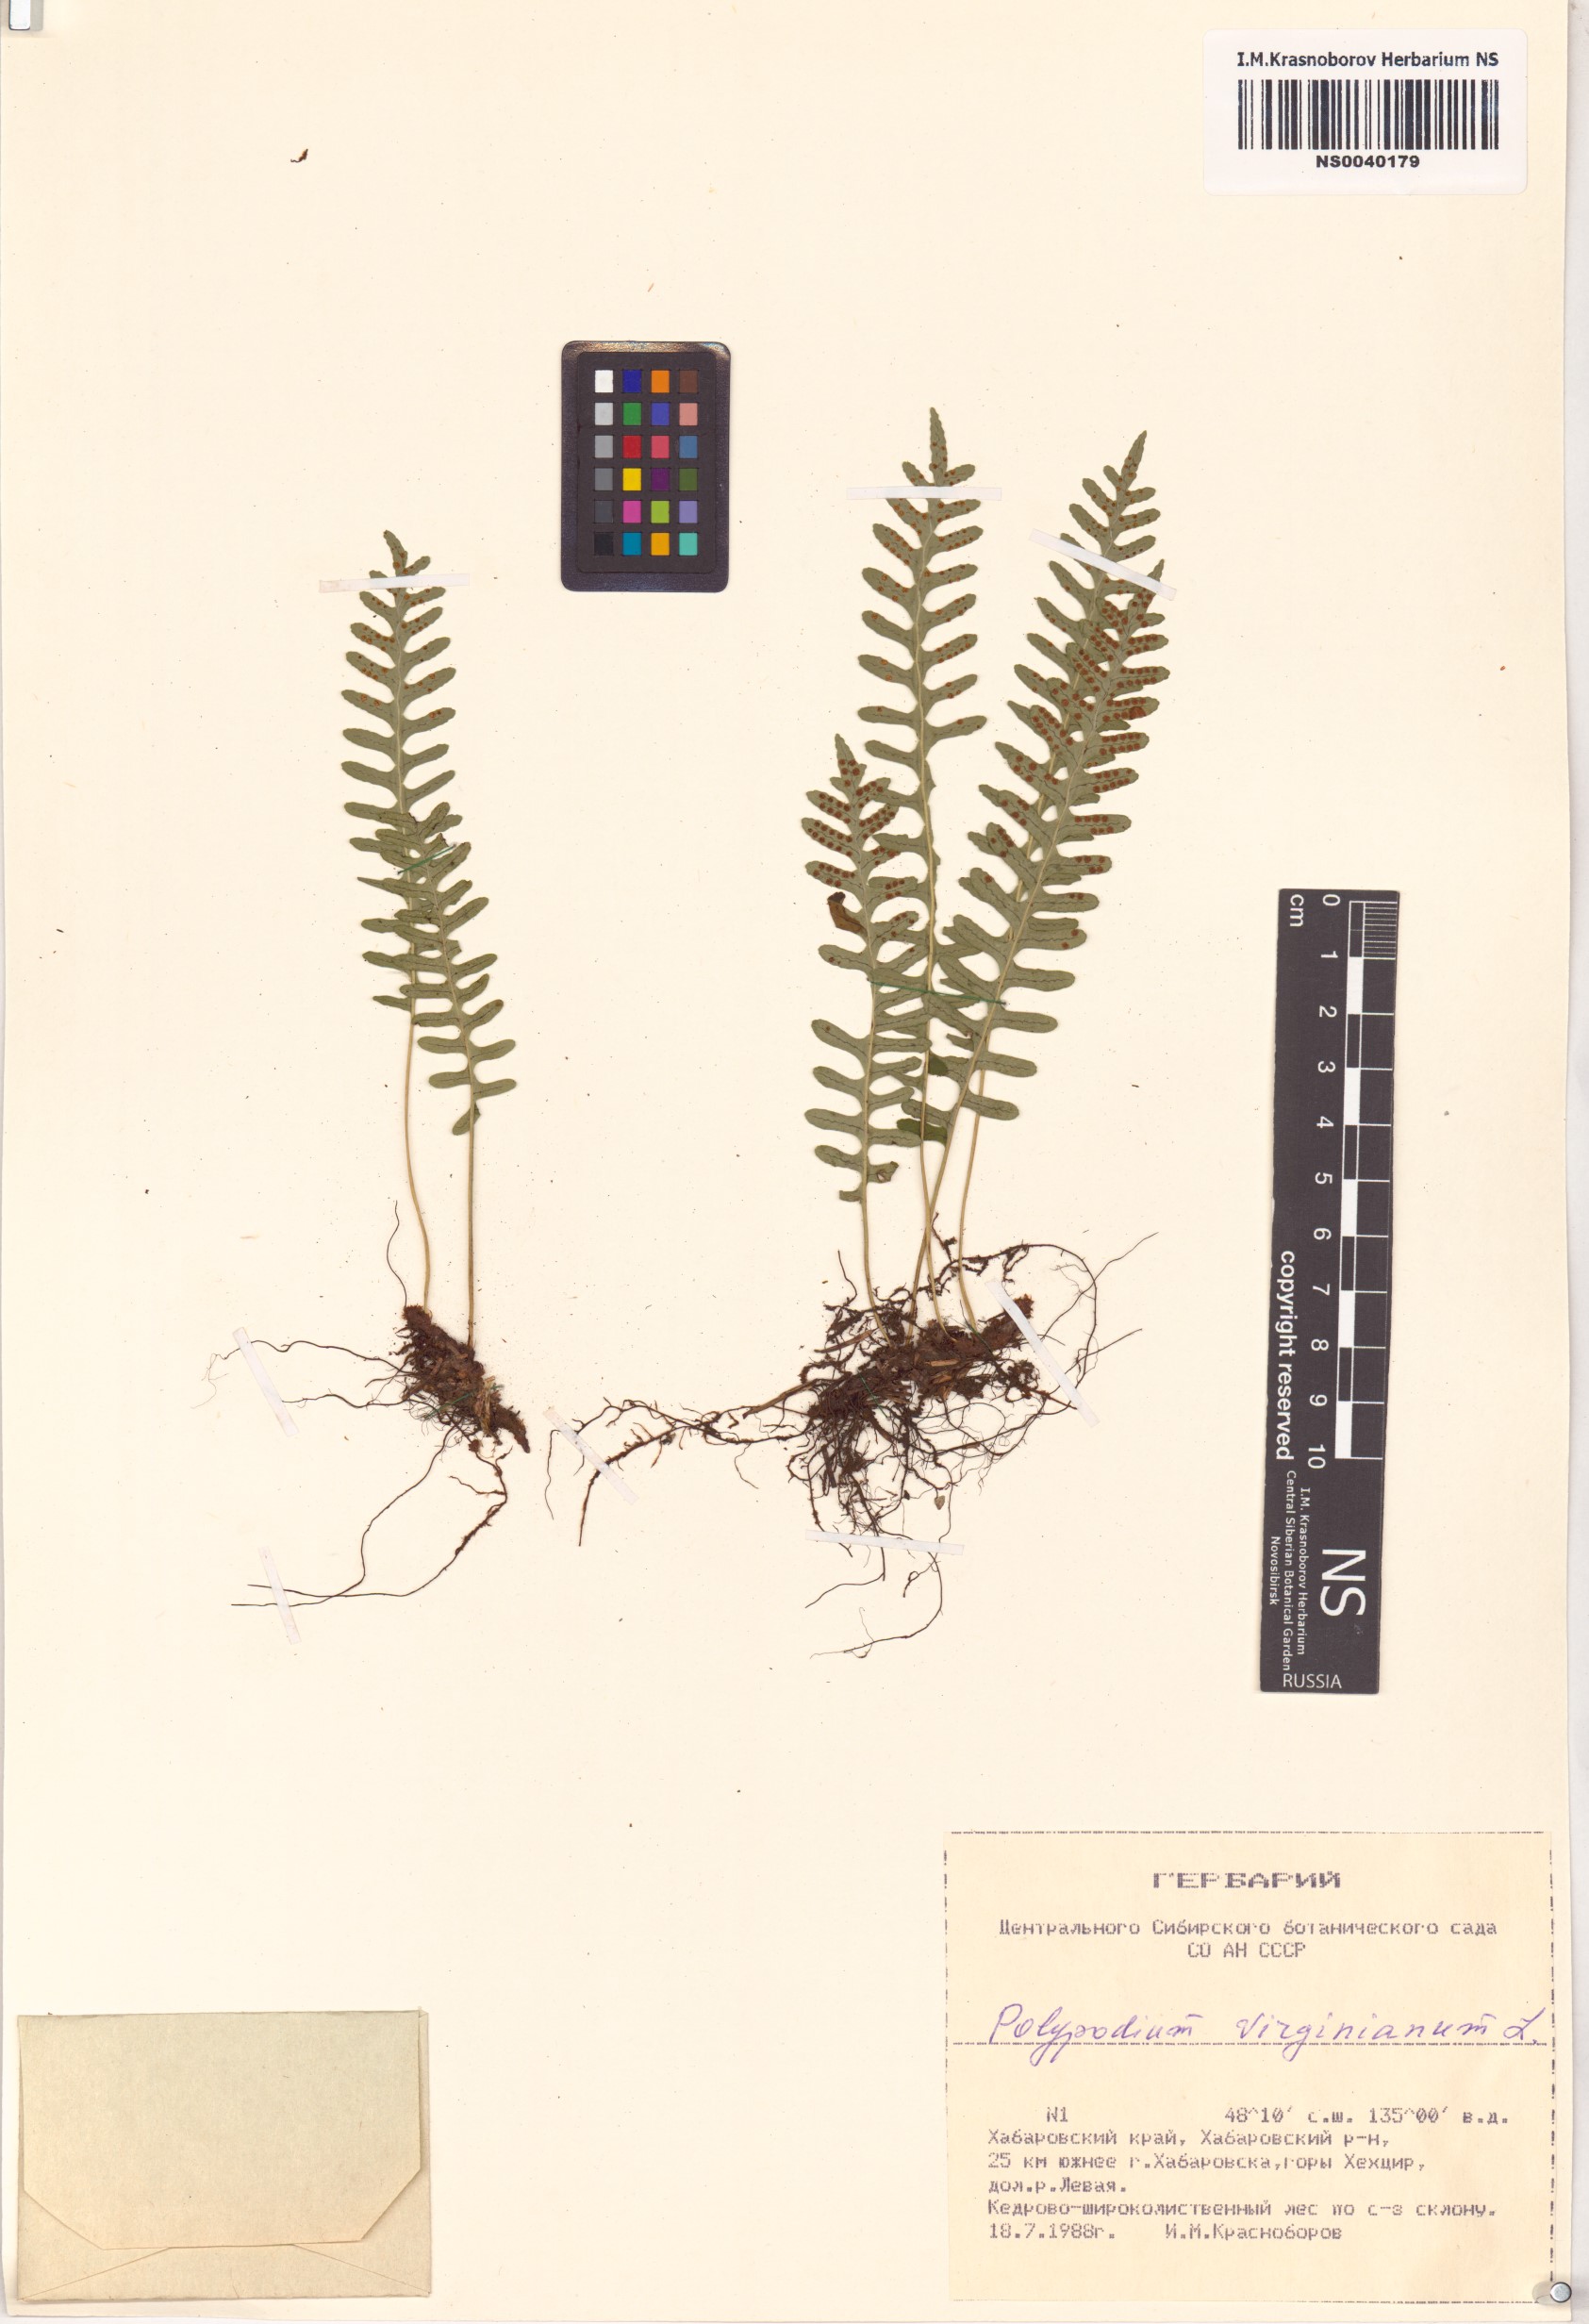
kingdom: Plantae
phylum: Tracheophyta
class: Polypodiopsida
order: Polypodiales
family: Polypodiaceae
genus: Polypodium
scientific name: Polypodium virginianum
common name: American wall fern
